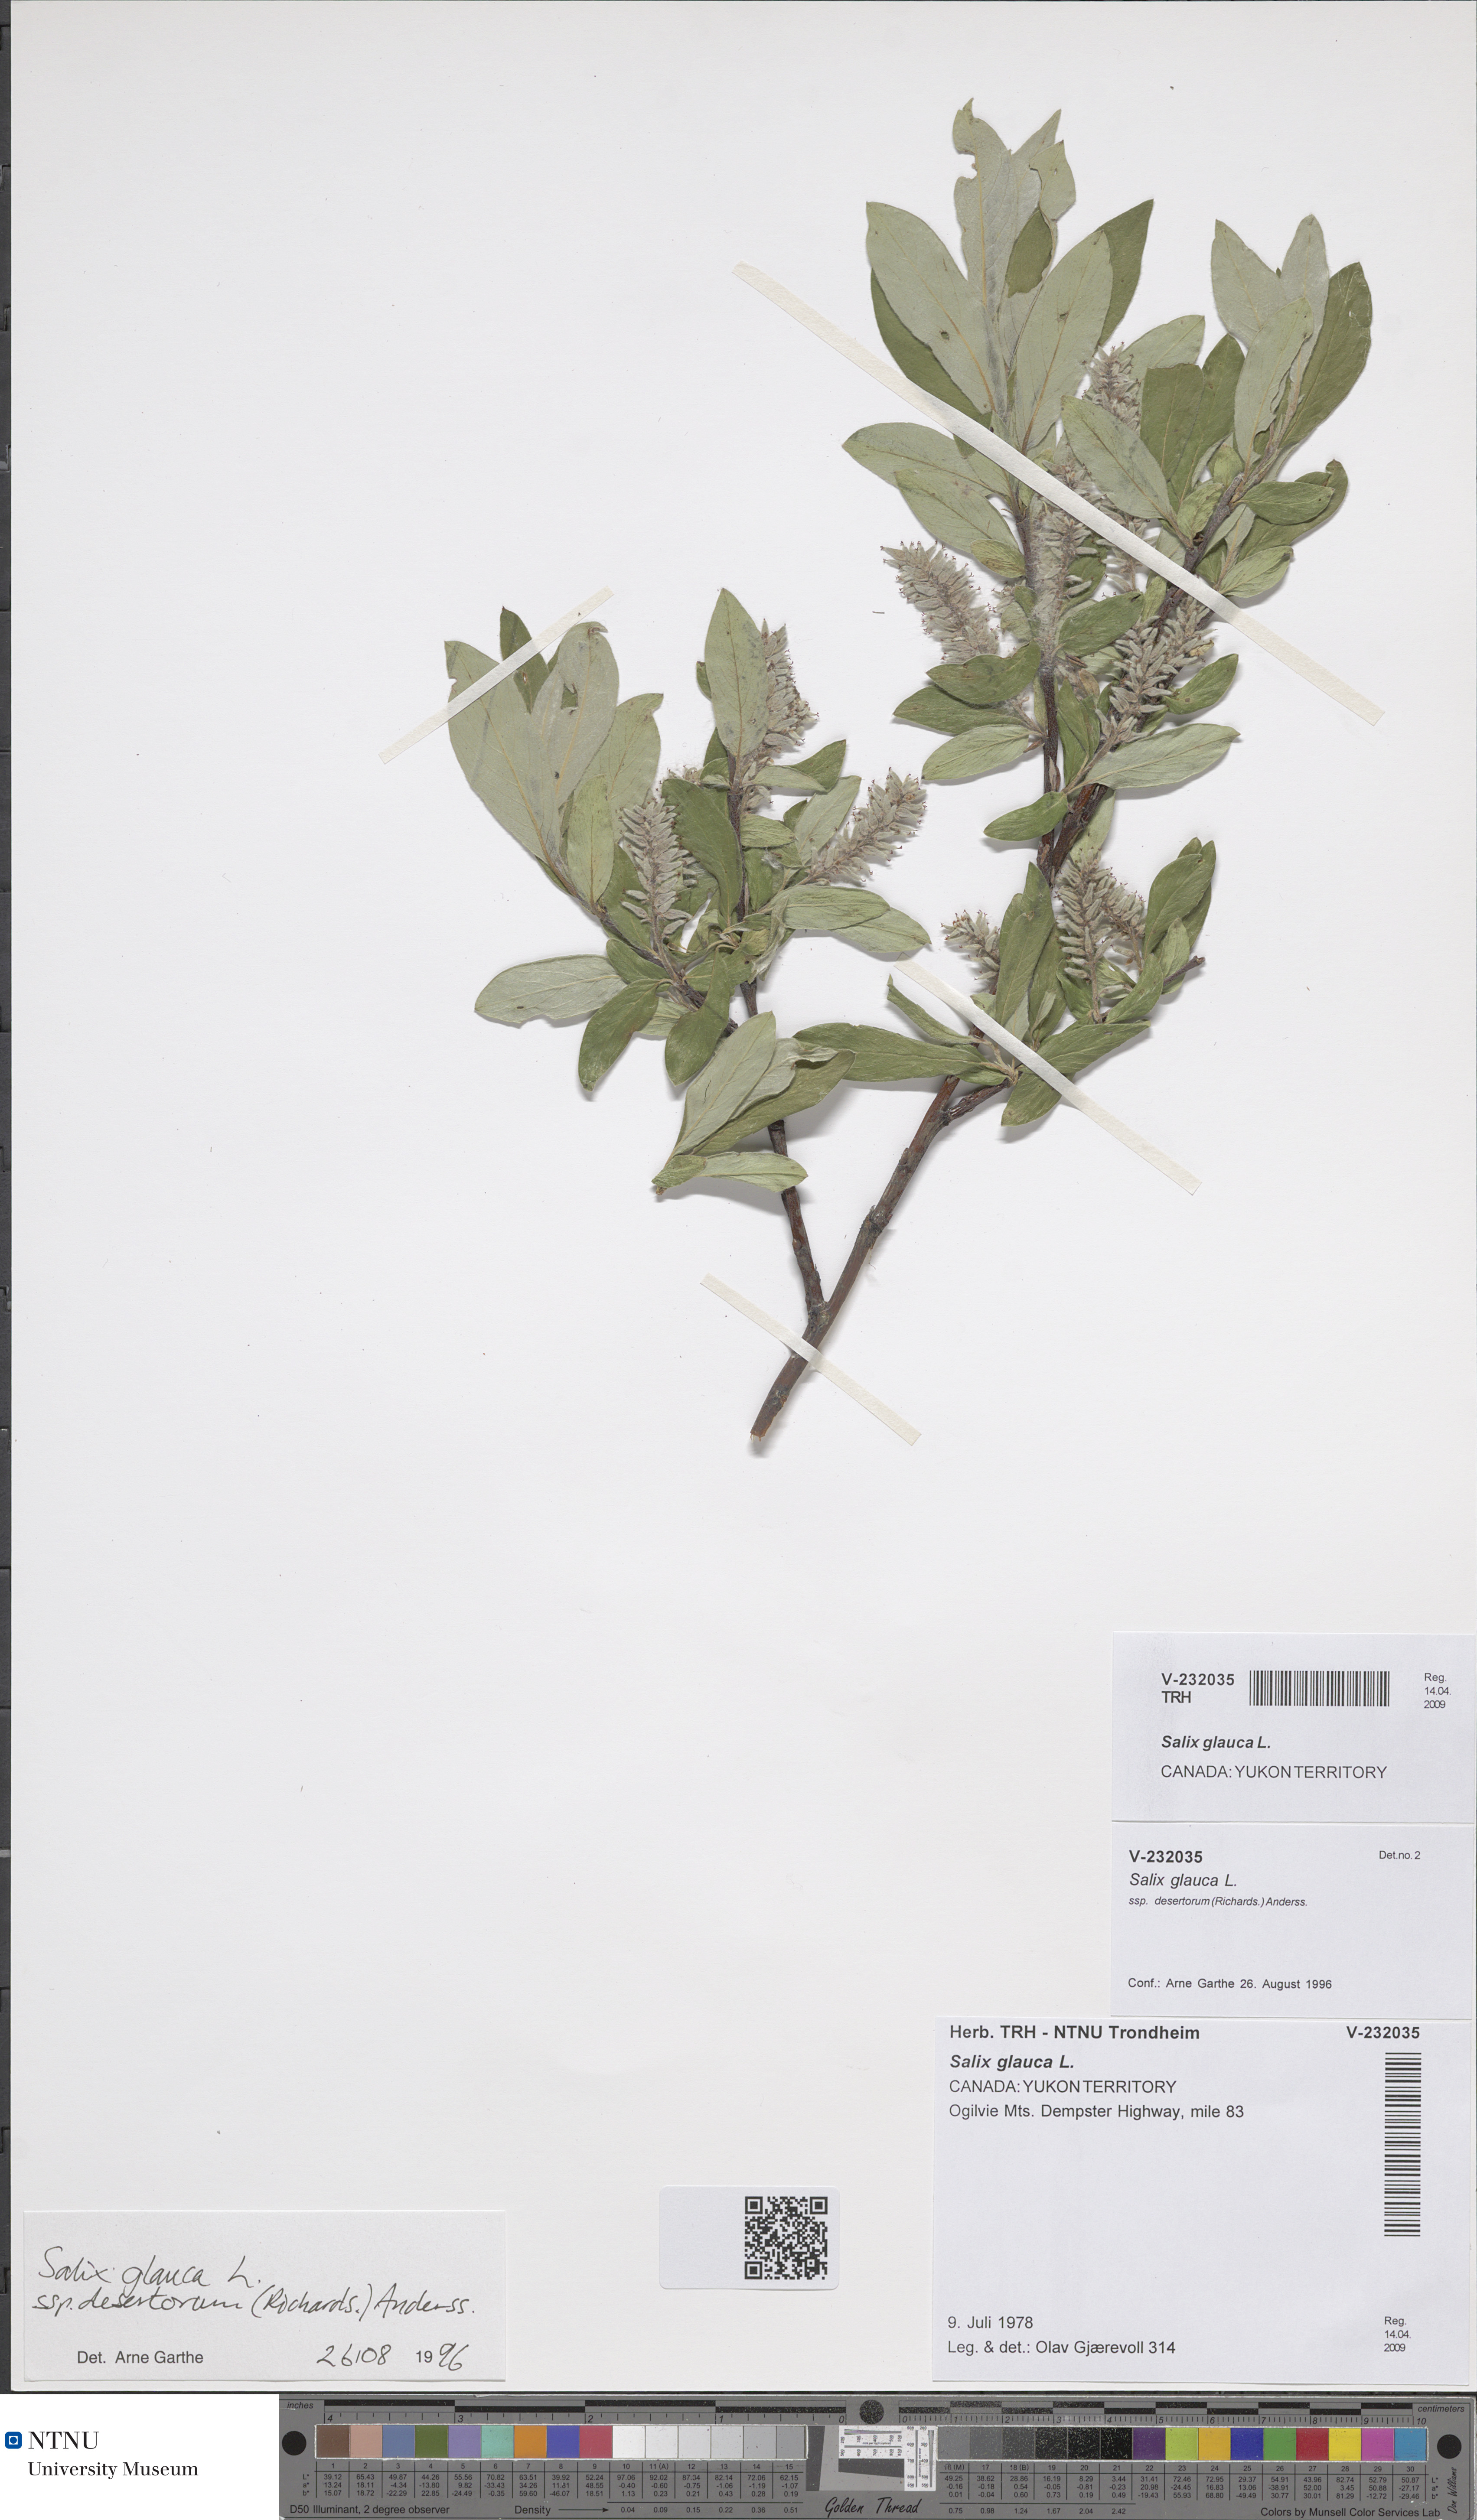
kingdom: Plantae
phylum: Tracheophyta
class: Magnoliopsida
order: Malpighiales
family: Salicaceae
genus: Salix
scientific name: Salix glauca
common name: Glaucous willow
